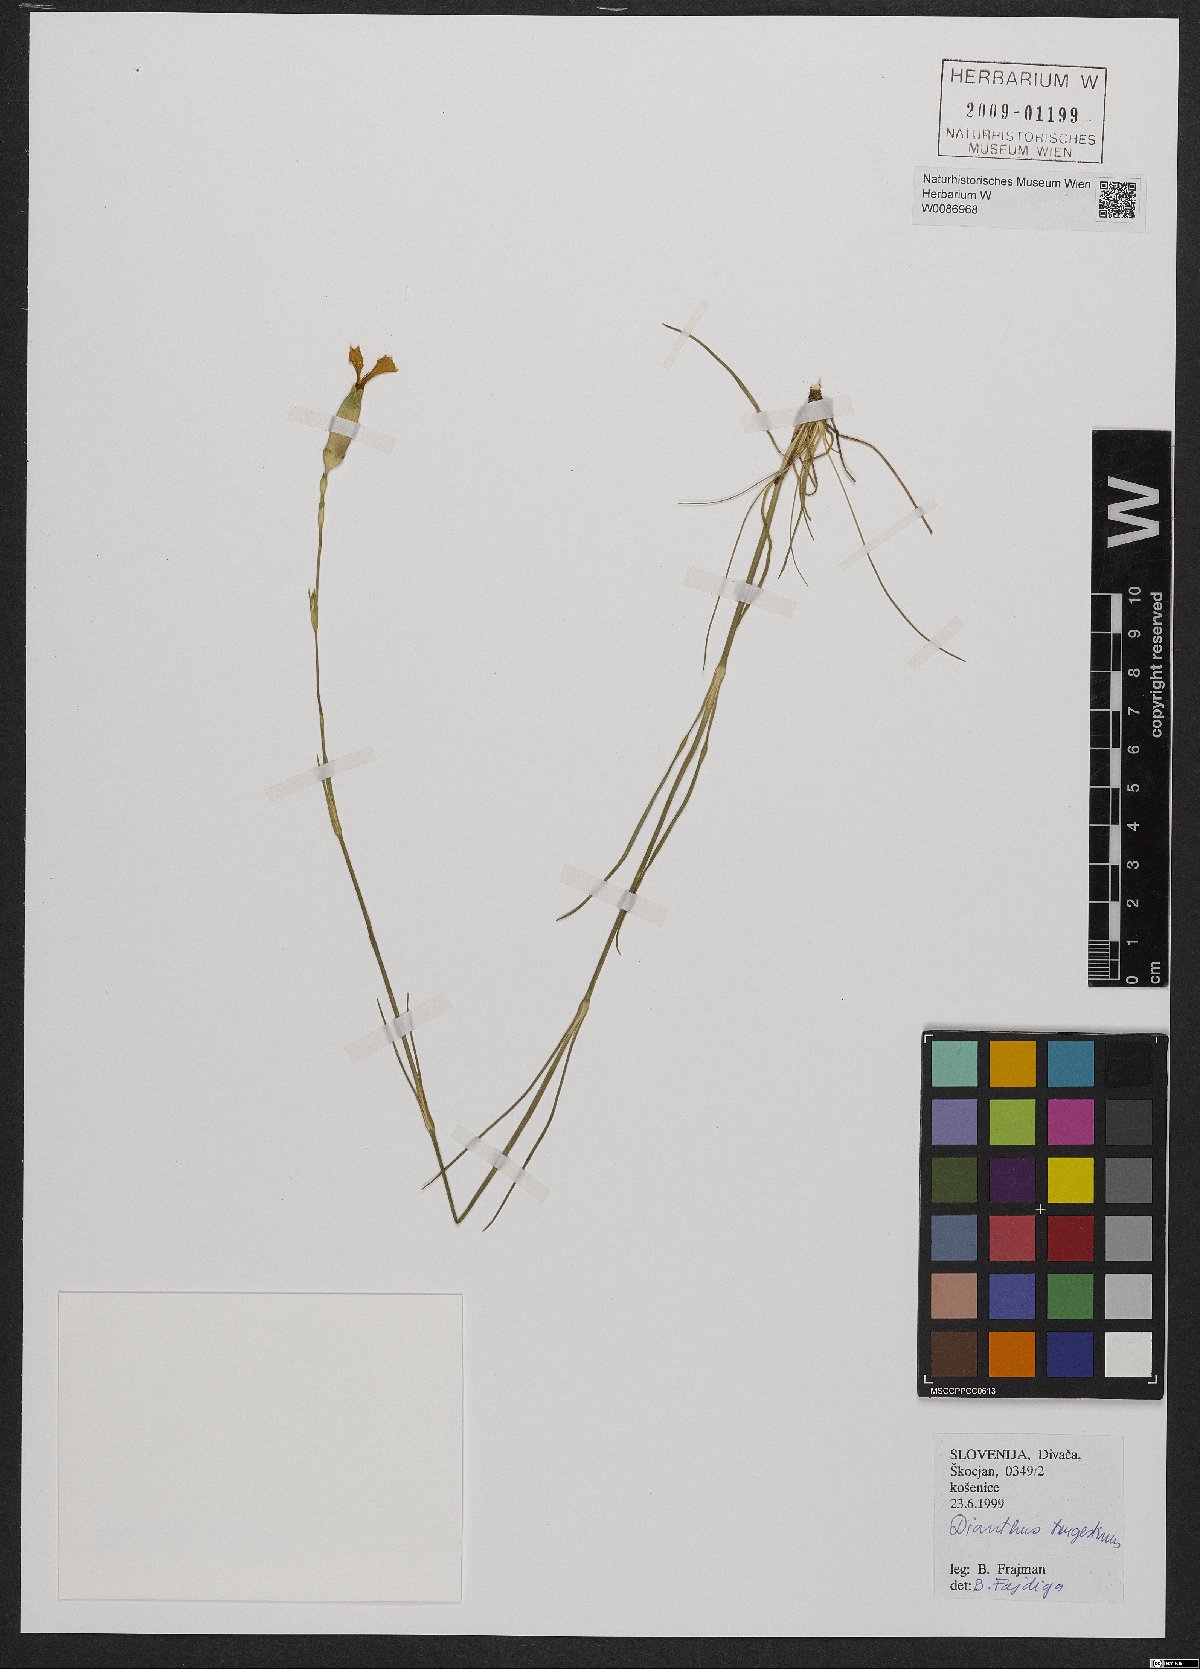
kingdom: Plantae
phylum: Tracheophyta
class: Magnoliopsida
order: Caryophyllales
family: Caryophyllaceae
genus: Dianthus
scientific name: Dianthus sylvestris
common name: Wood pink
